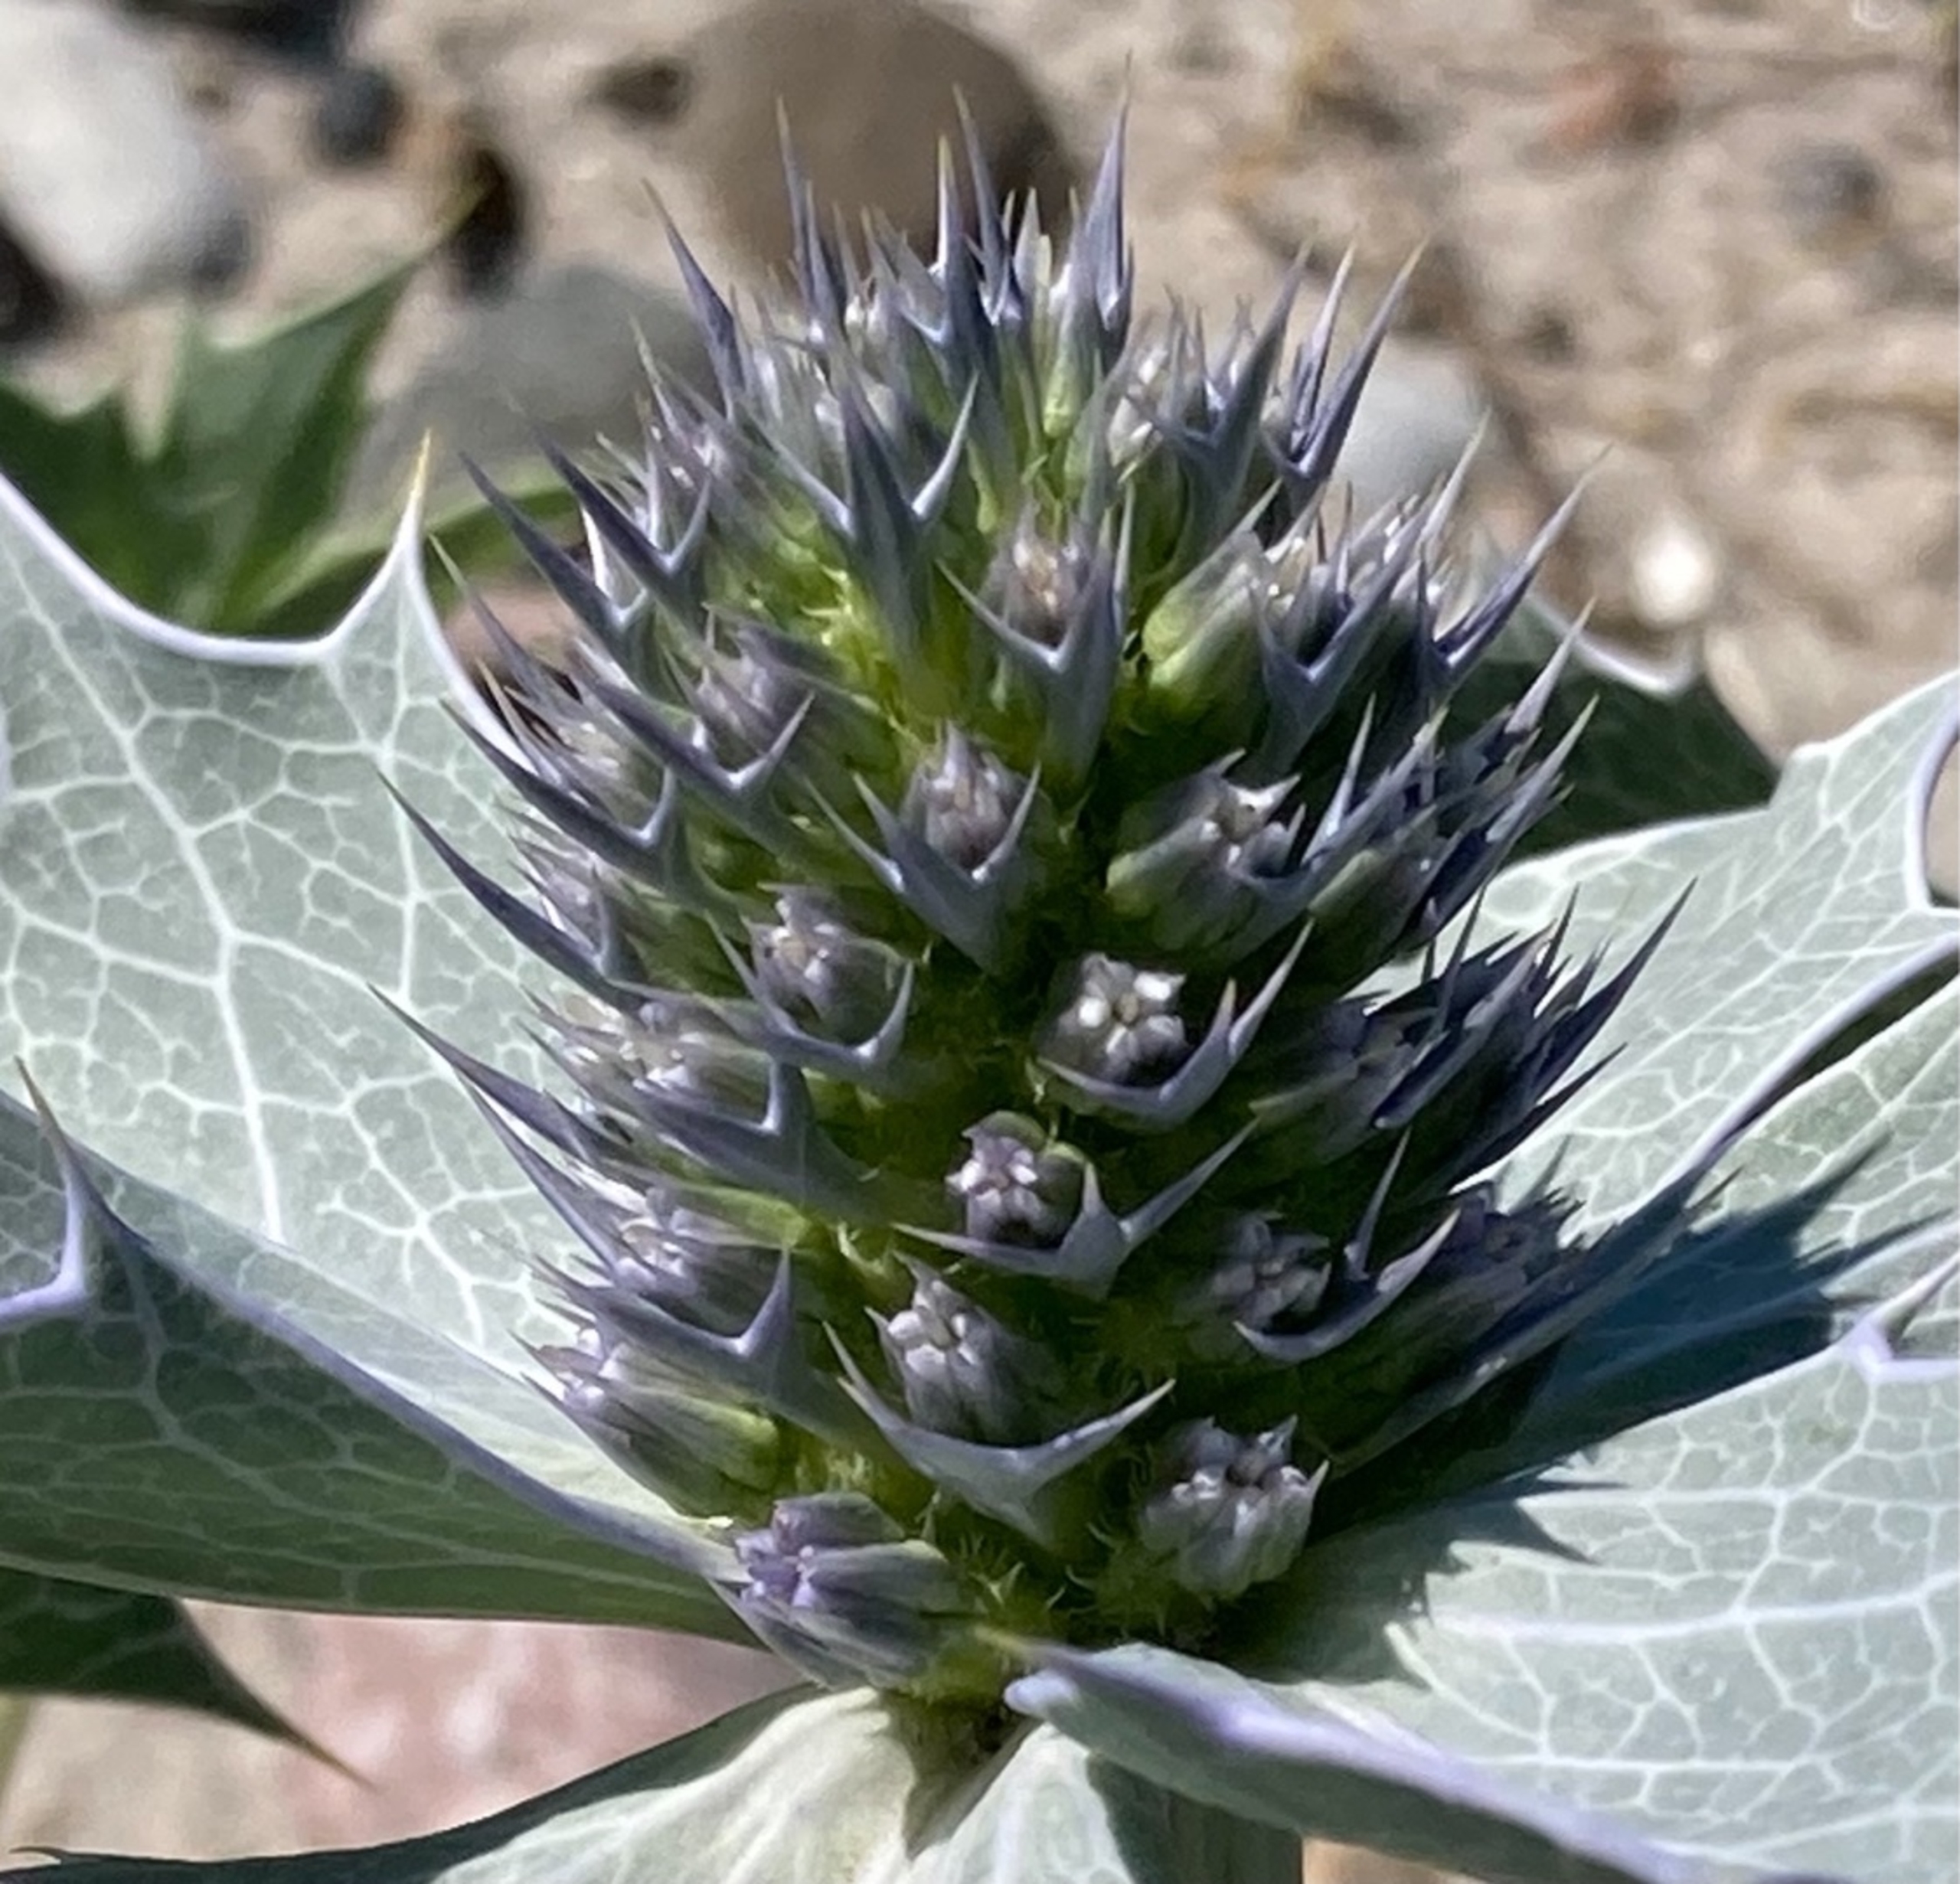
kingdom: Plantae
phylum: Tracheophyta
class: Magnoliopsida
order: Apiales
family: Apiaceae
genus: Eryngium
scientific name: Eryngium maritimum
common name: Strand-mandstro
